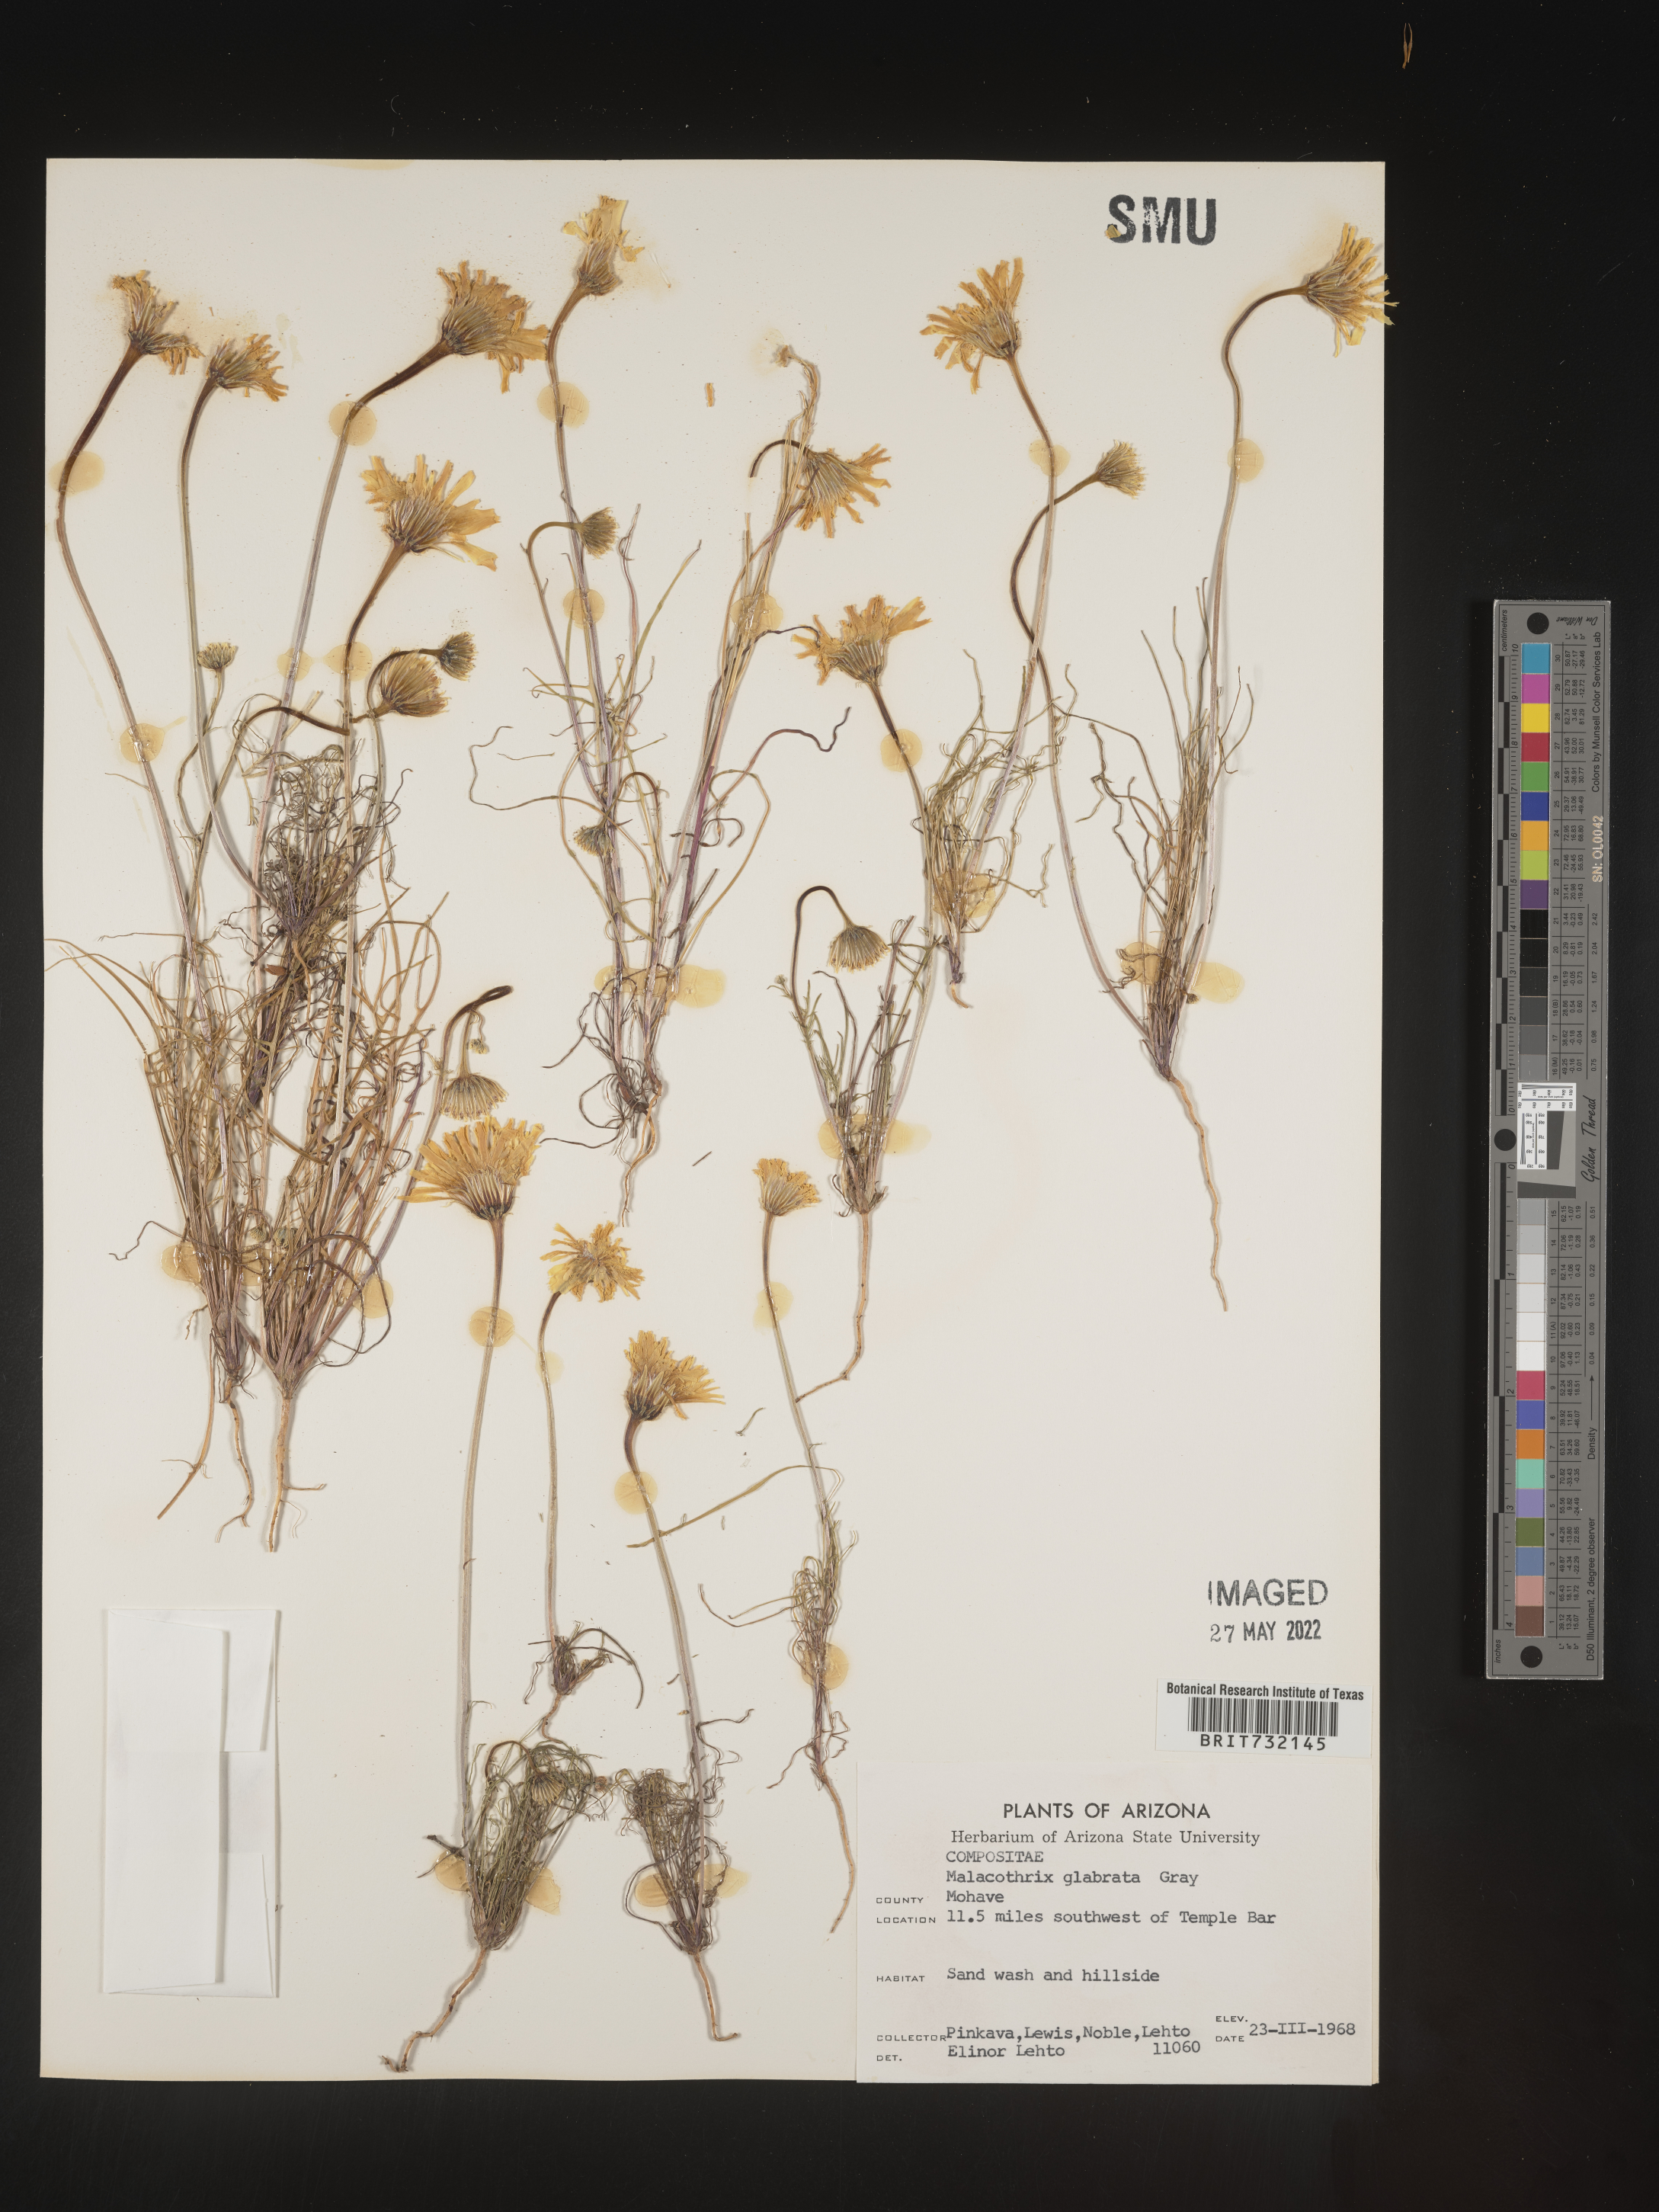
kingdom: Plantae
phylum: Tracheophyta
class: Magnoliopsida
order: Asterales
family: Asteraceae
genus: Malacothrix
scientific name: Malacothrix glabrata
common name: Smooth desert-dandelion
